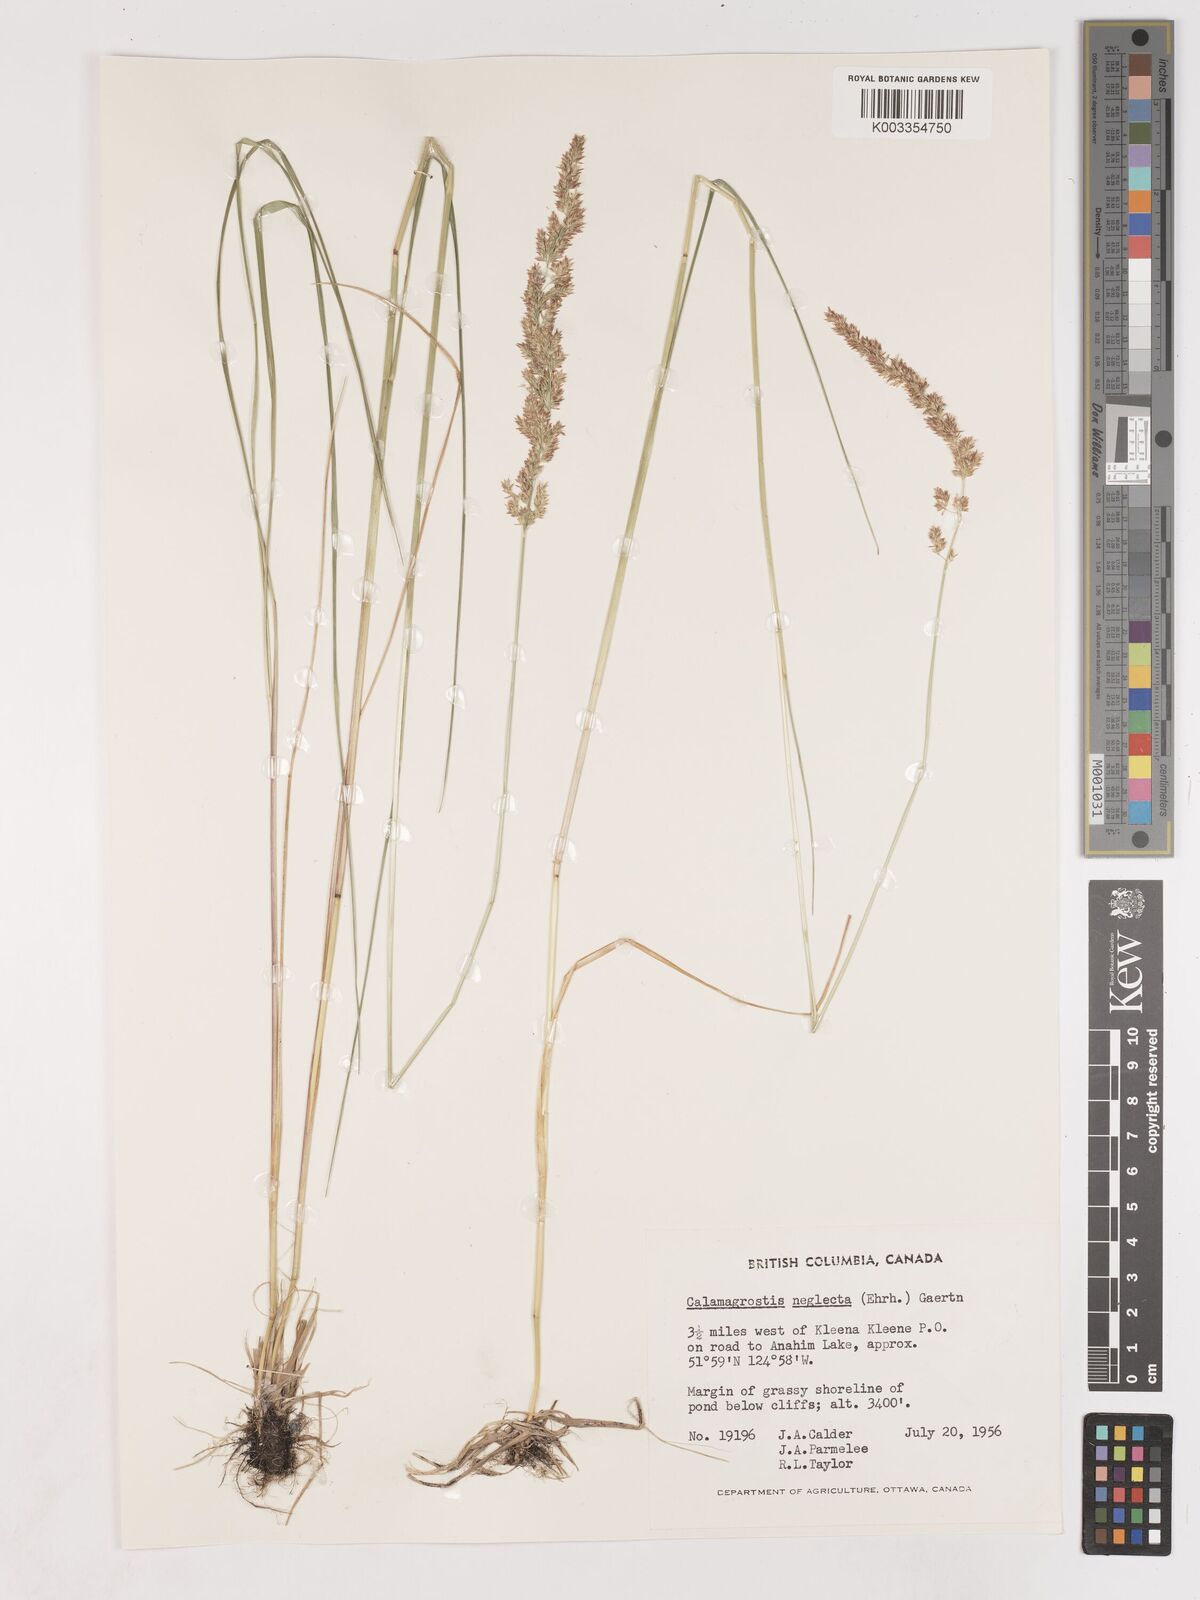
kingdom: Plantae
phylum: Tracheophyta
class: Liliopsida
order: Poales
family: Poaceae
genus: Cinnagrostis
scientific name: Cinnagrostis recta
